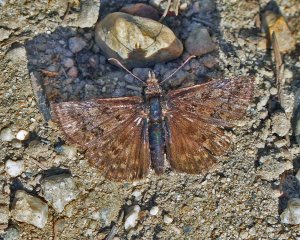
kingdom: Animalia
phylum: Arthropoda
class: Insecta
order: Lepidoptera
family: Hesperiidae
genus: Erynnis
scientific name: Erynnis icelus
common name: Dreamy Duskywing
